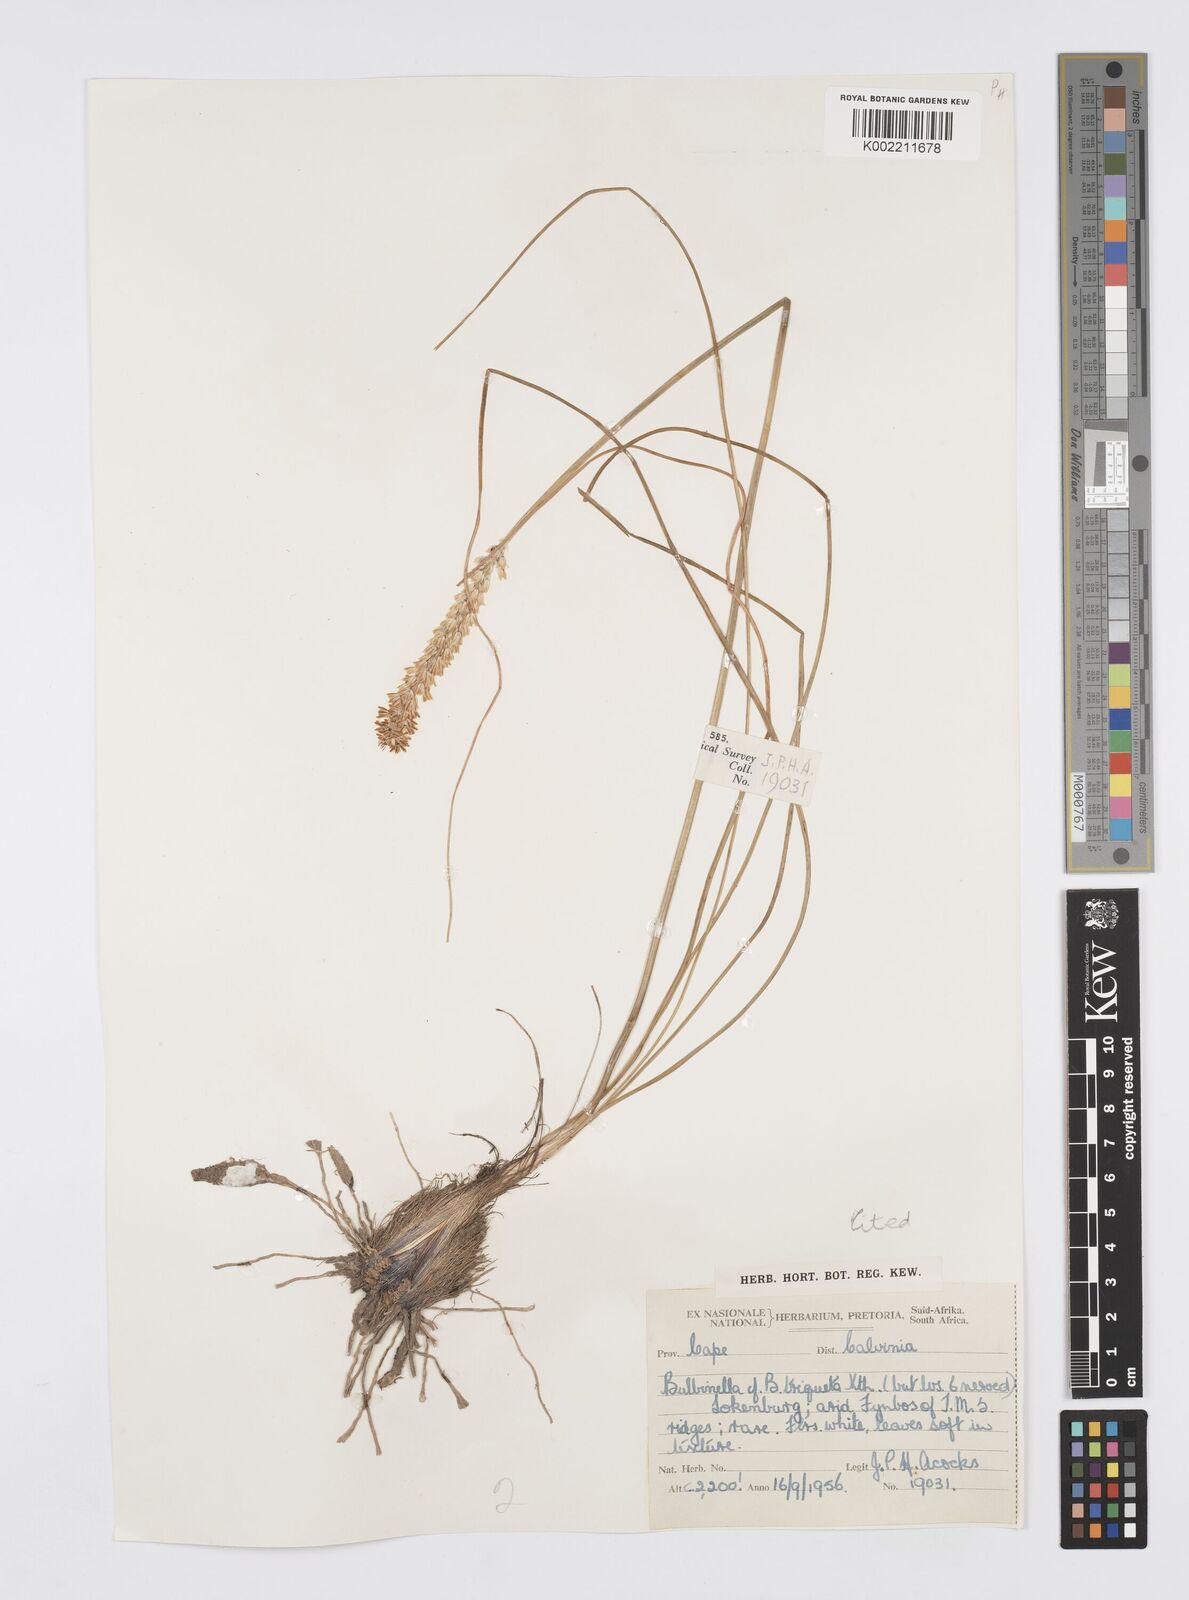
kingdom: Plantae
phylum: Tracheophyta
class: Liliopsida
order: Asparagales
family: Asphodelaceae
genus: Bulbinella
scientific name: Bulbinella cauda-felis
